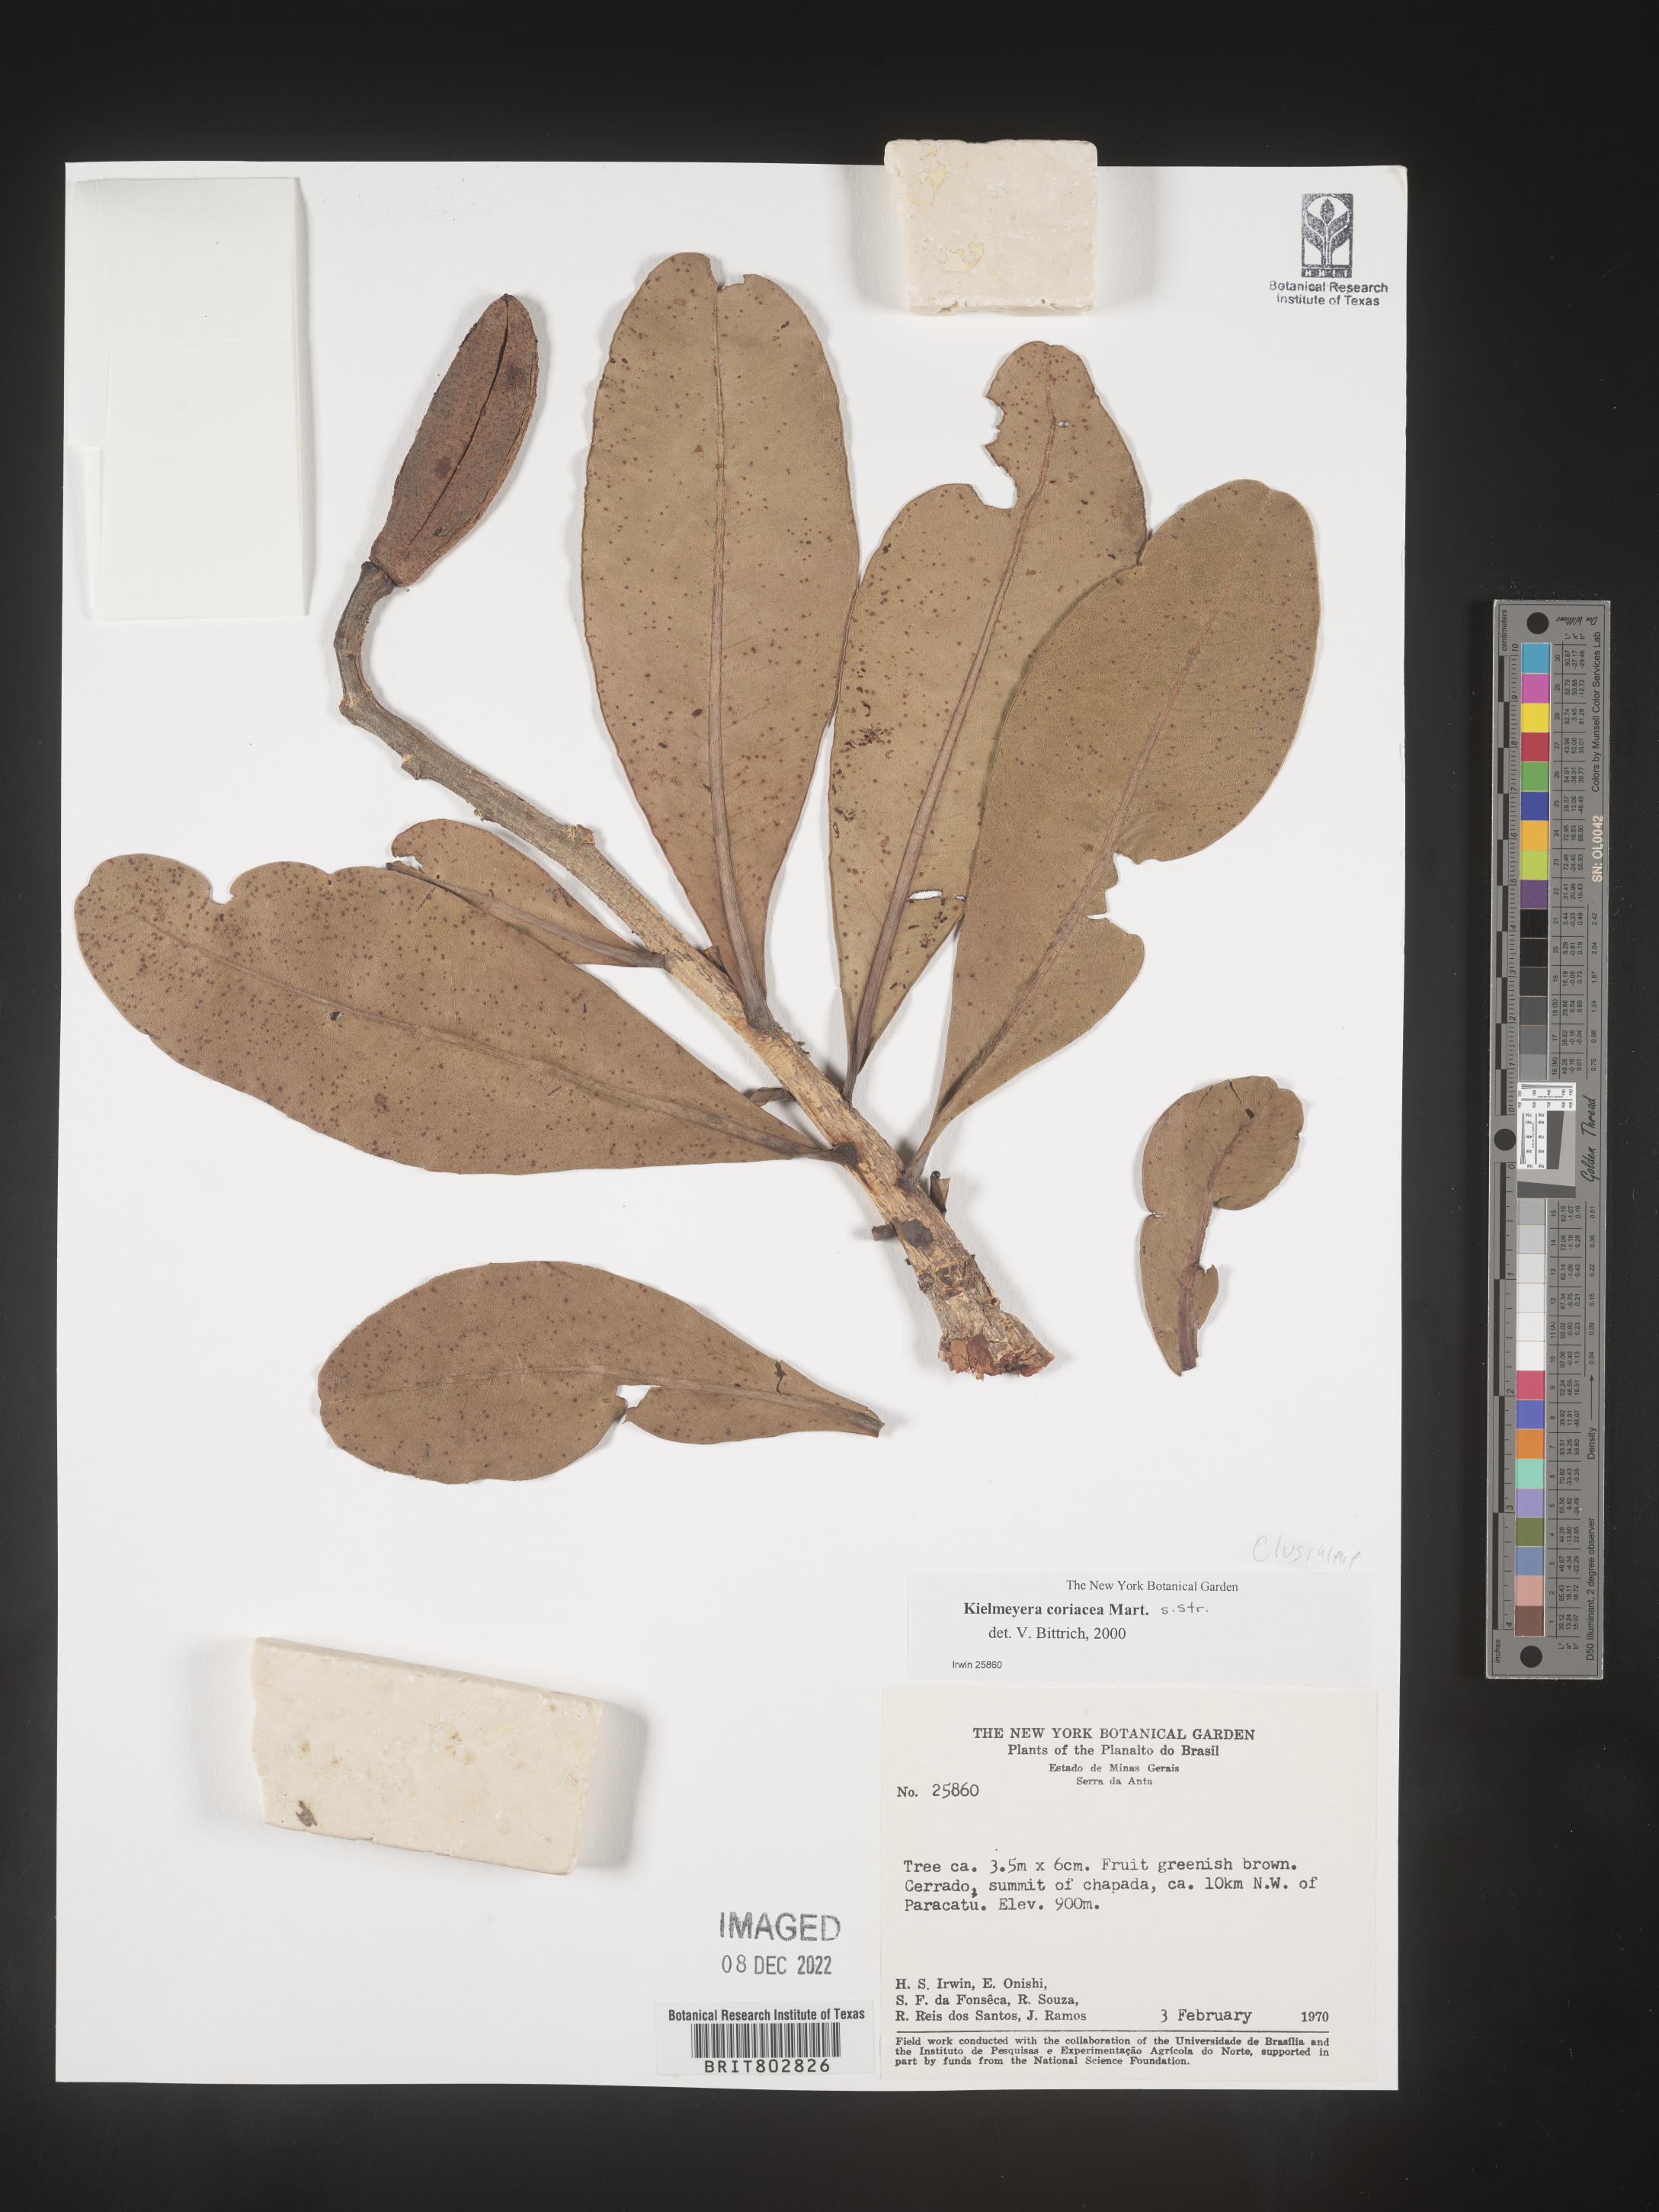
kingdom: Plantae
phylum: Tracheophyta
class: Magnoliopsida
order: Malpighiales
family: Calophyllaceae
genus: Kielmeyera
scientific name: Kielmeyera
